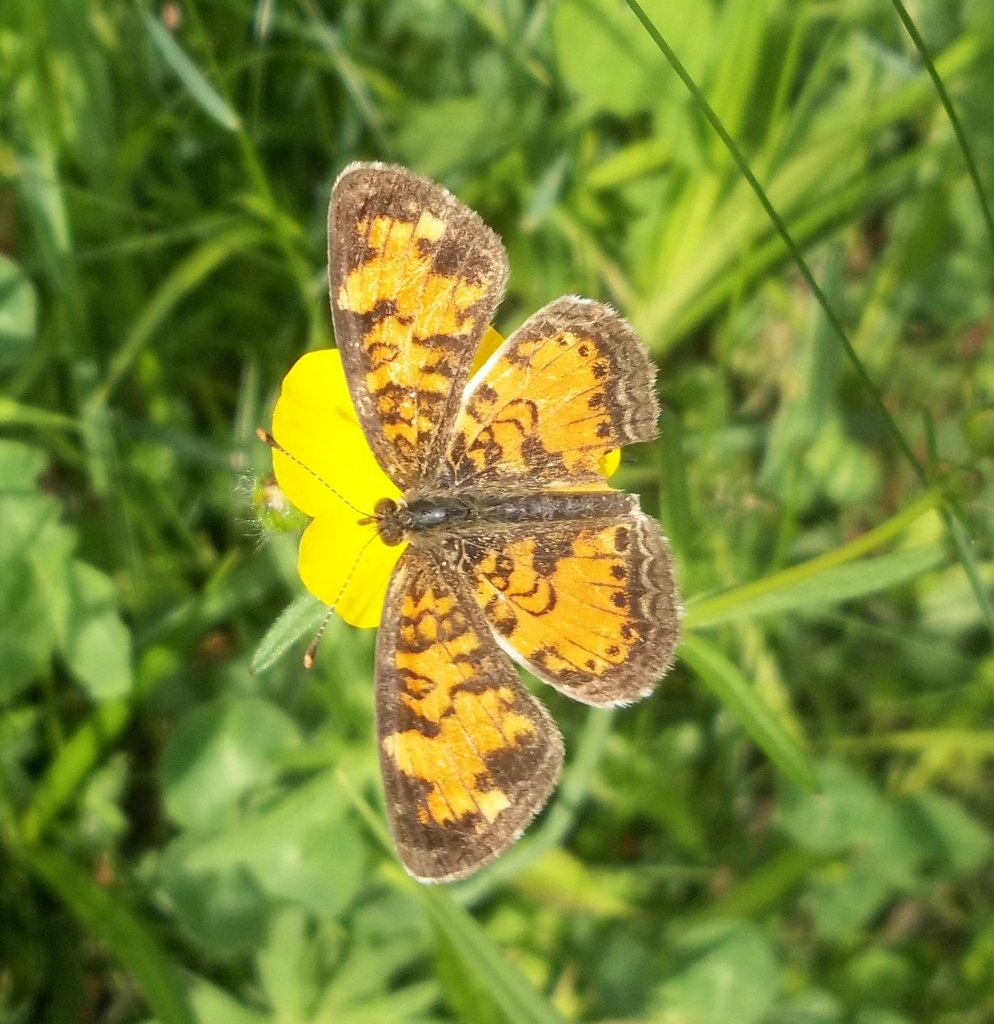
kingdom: Animalia
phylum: Arthropoda
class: Insecta
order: Lepidoptera
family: Nymphalidae
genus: Phyciodes
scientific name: Phyciodes tharos
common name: Northern Crescent
